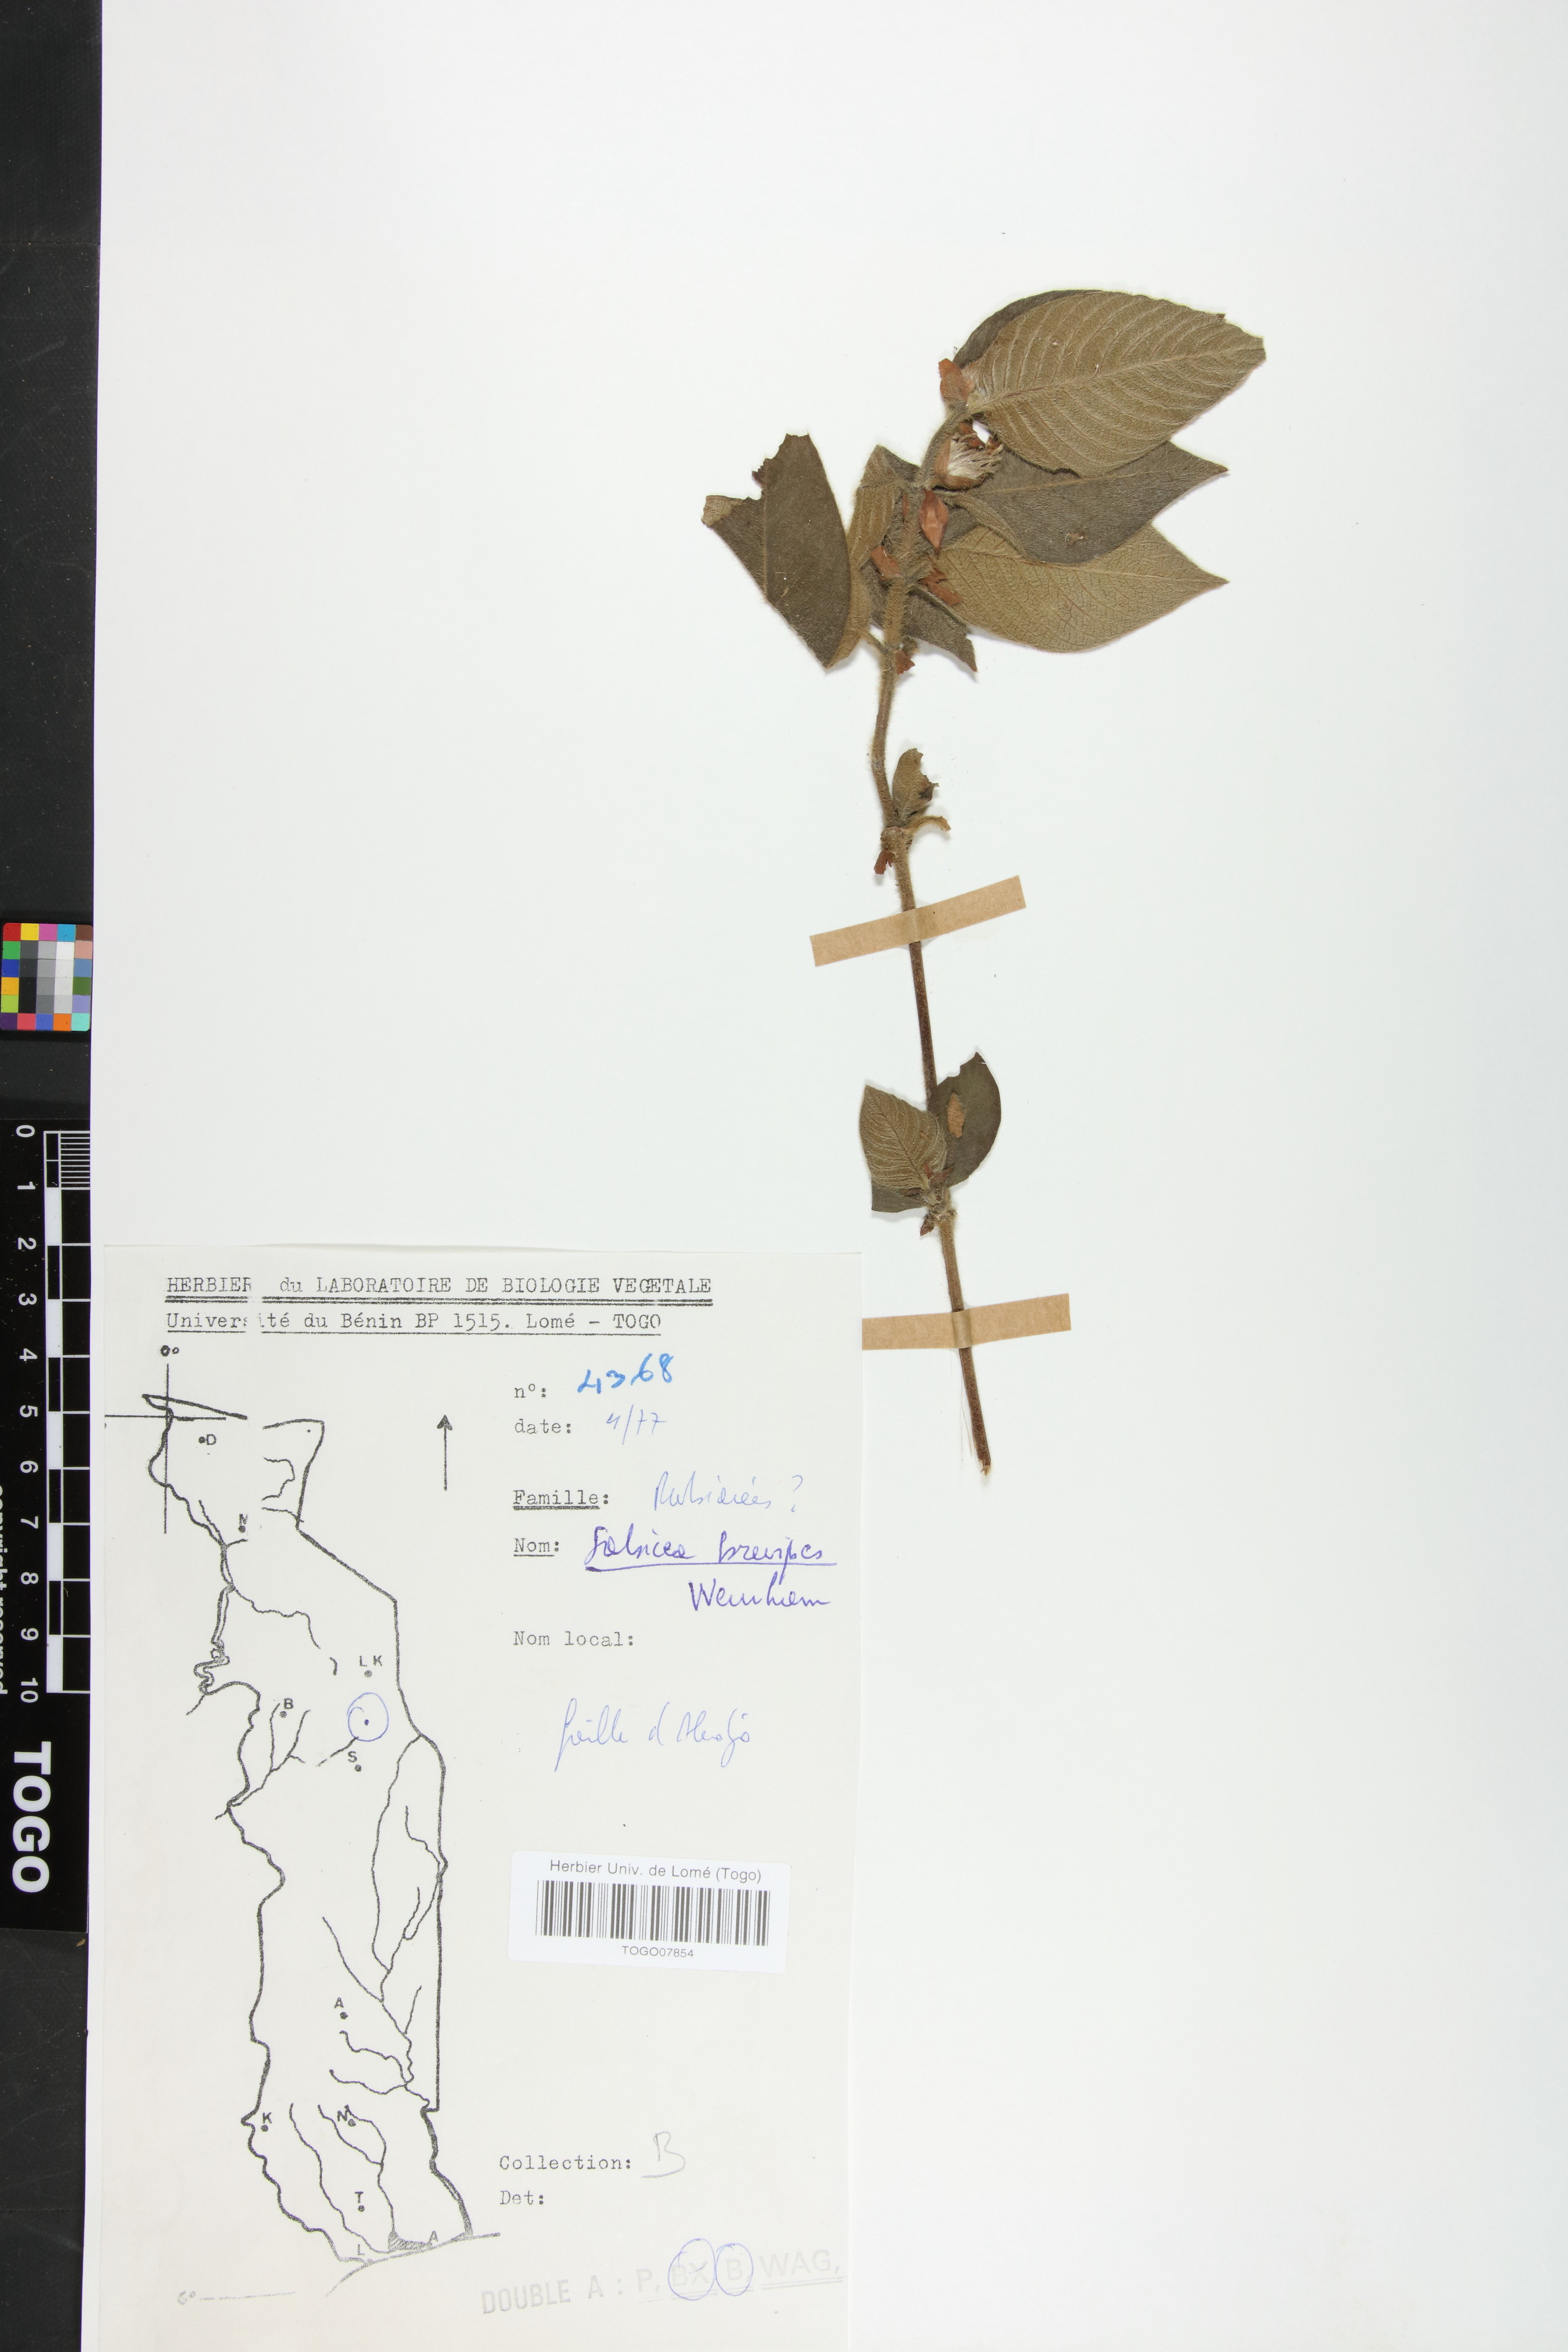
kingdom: Plantae
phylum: Tracheophyta
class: Magnoliopsida
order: Gentianales
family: Rubiaceae
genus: Sabicea
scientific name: Sabicea brevipes
